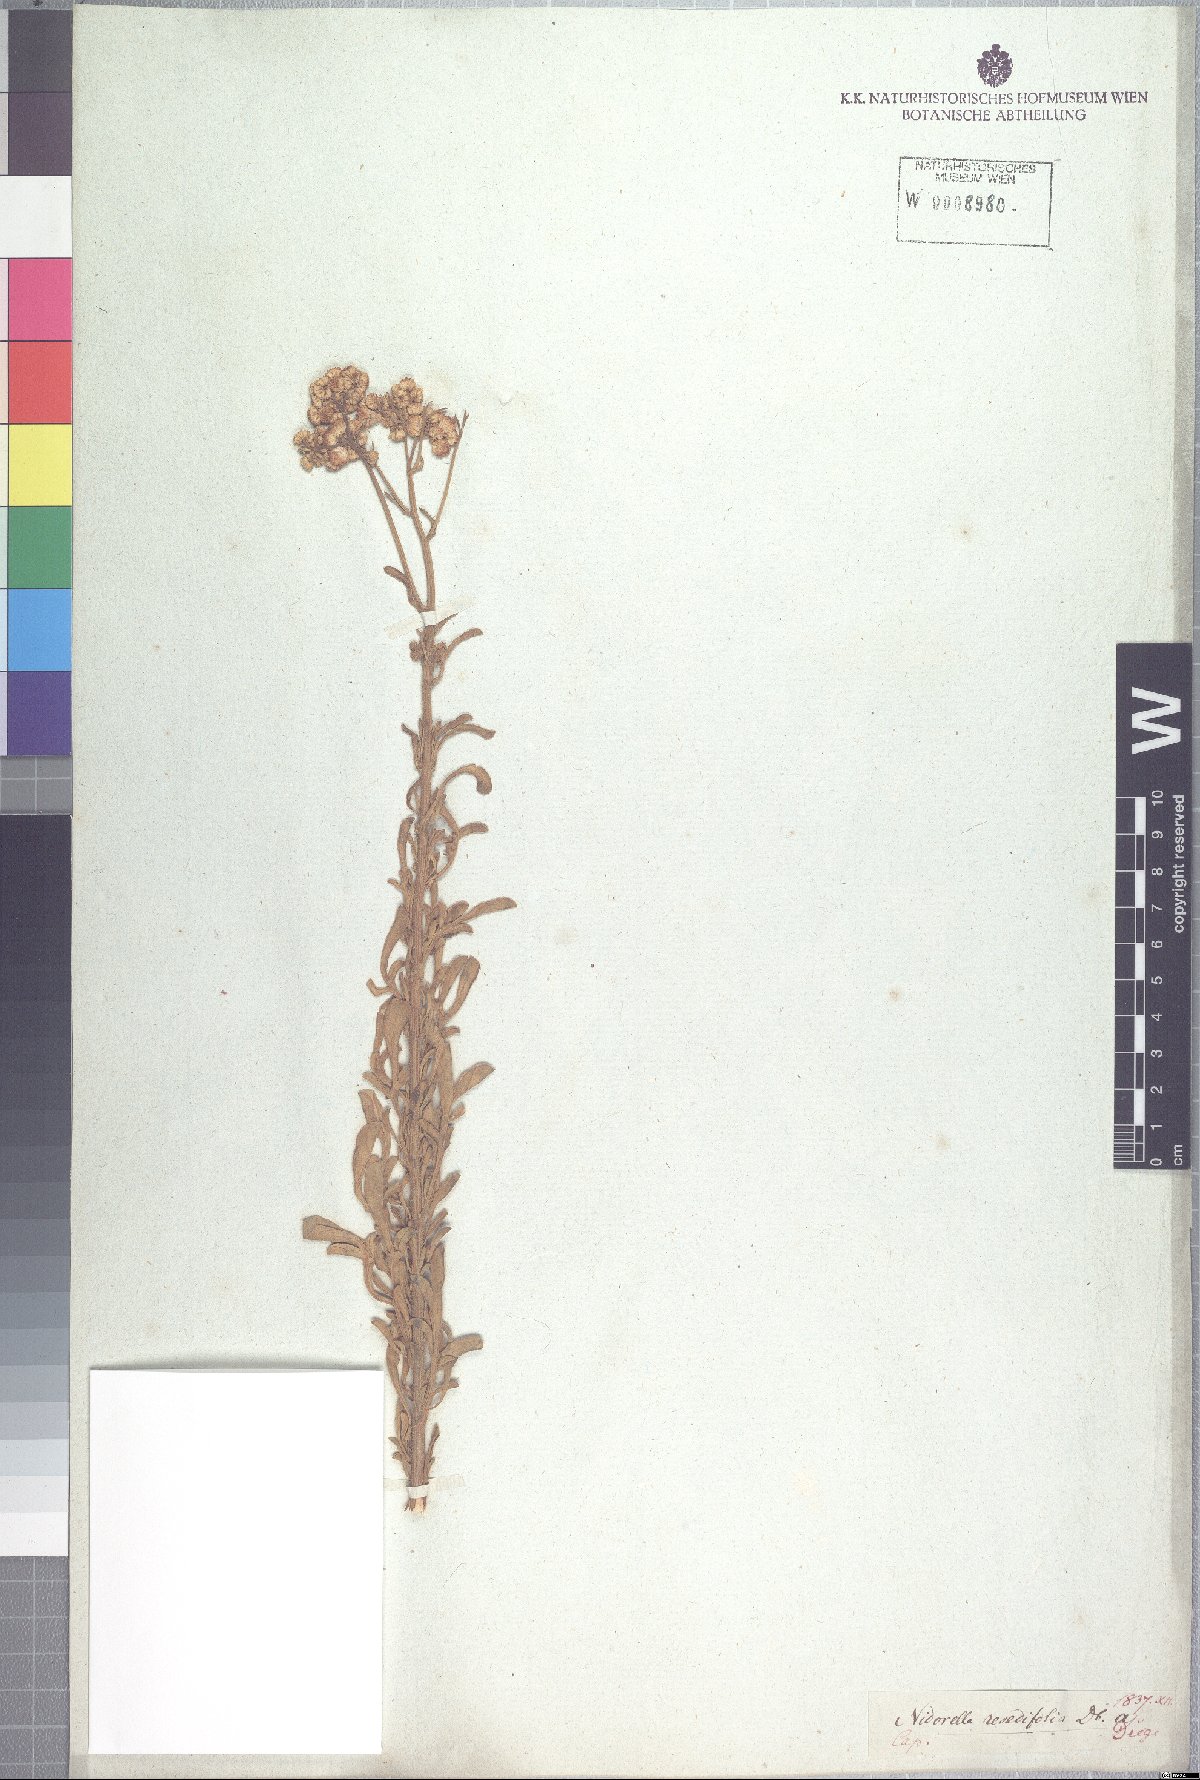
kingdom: Plantae
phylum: Tracheophyta
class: Magnoliopsida
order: Asterales
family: Asteraceae
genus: Nidorella
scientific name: Nidorella resedifolia
